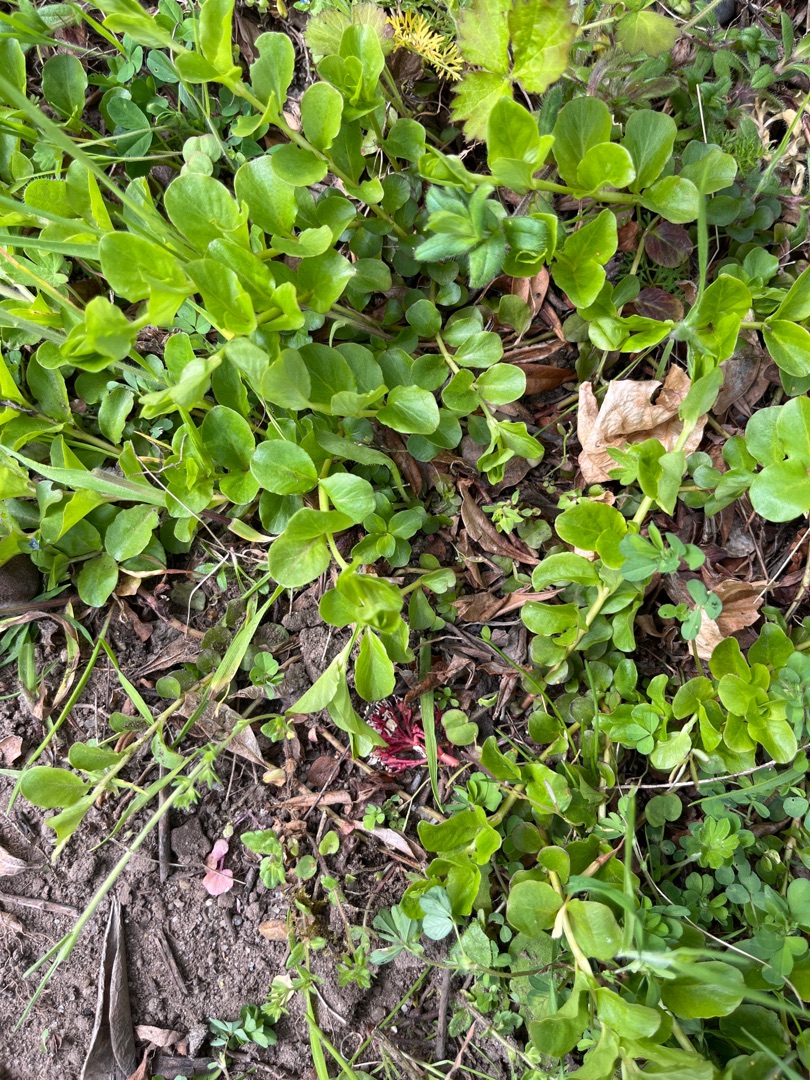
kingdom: Plantae
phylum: Tracheophyta
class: Magnoliopsida
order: Ericales
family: Primulaceae
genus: Lysimachia
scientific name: Lysimachia nummularia
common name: Pengebladet fredløs
